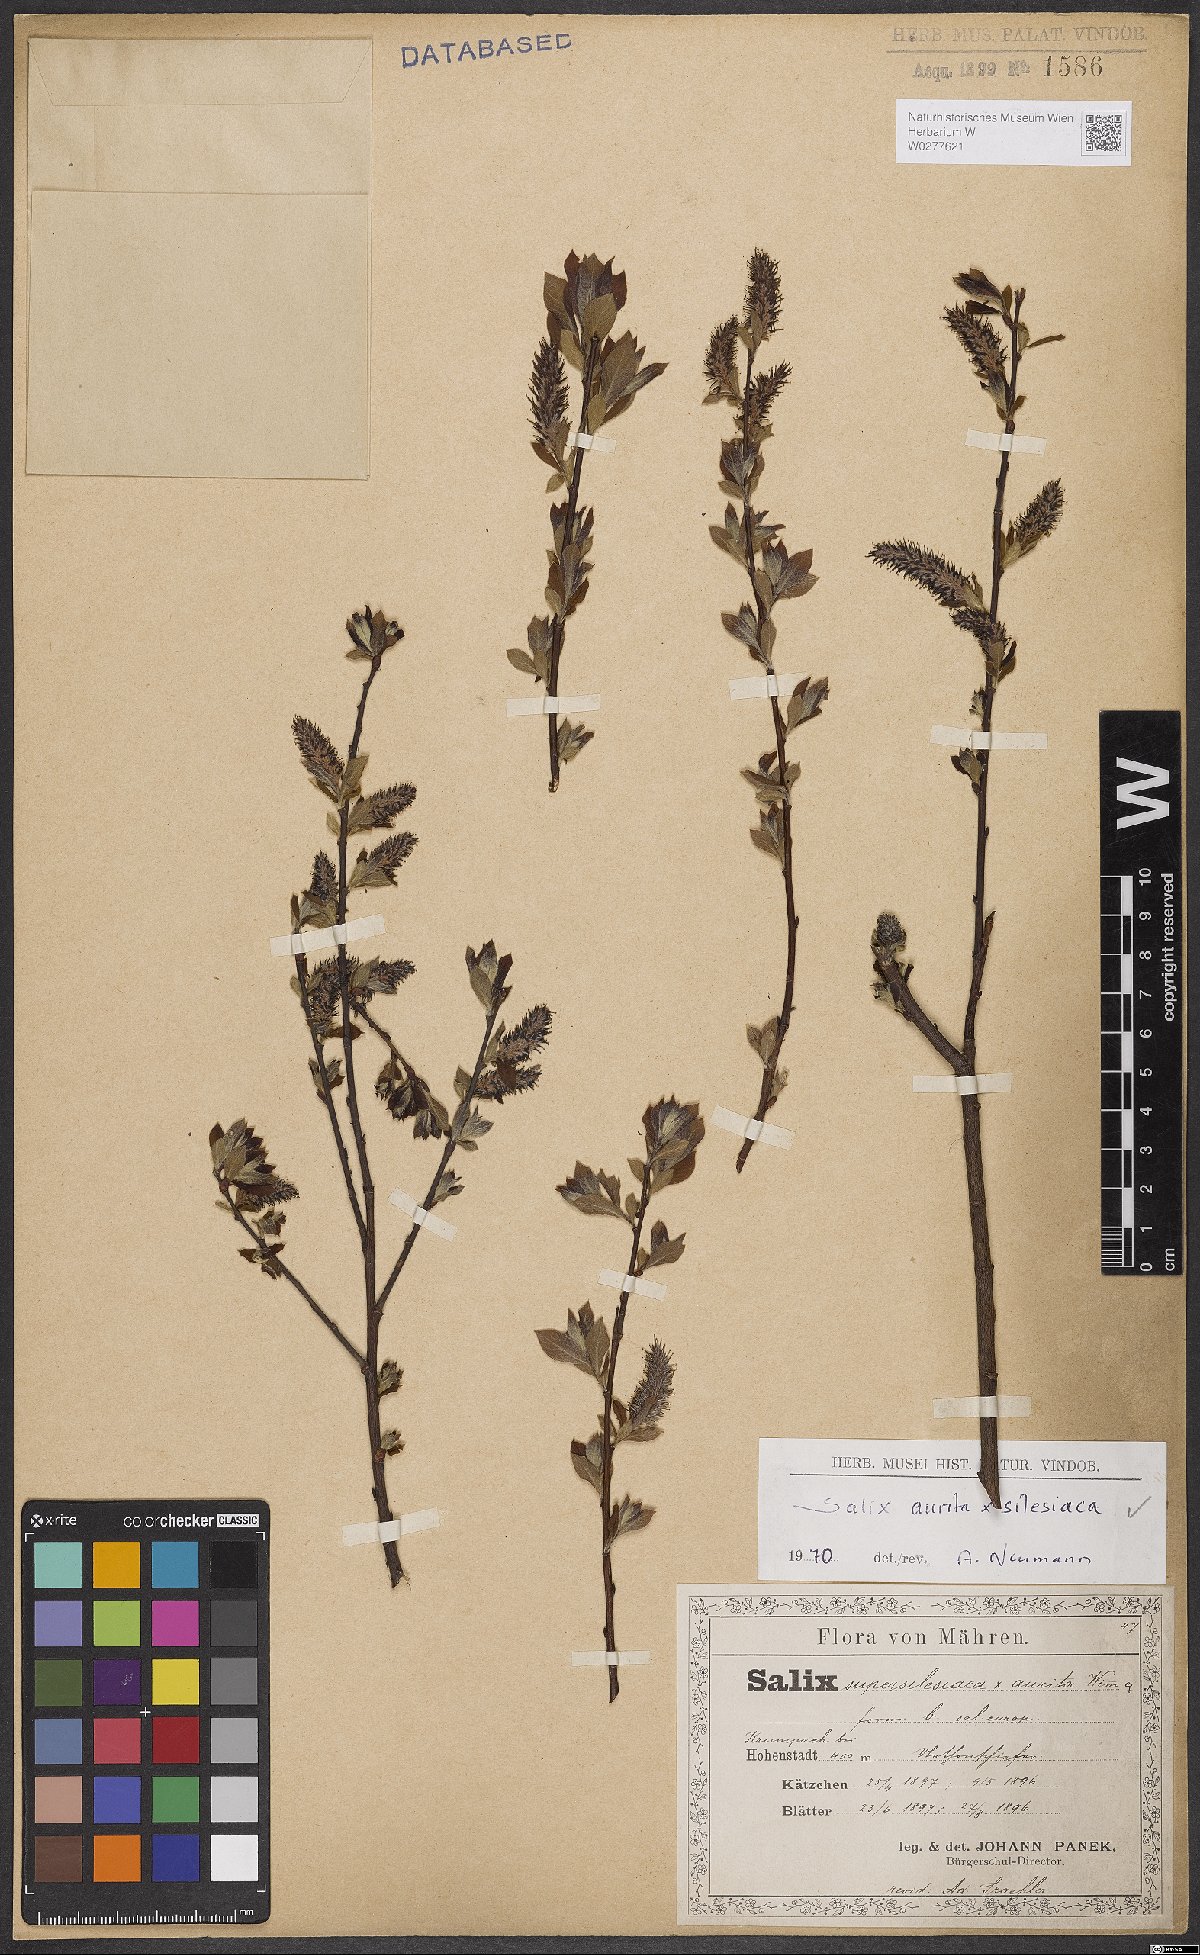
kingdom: Plantae
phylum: Tracheophyta
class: Magnoliopsida
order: Malpighiales
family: Salicaceae
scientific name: Salicaceae
